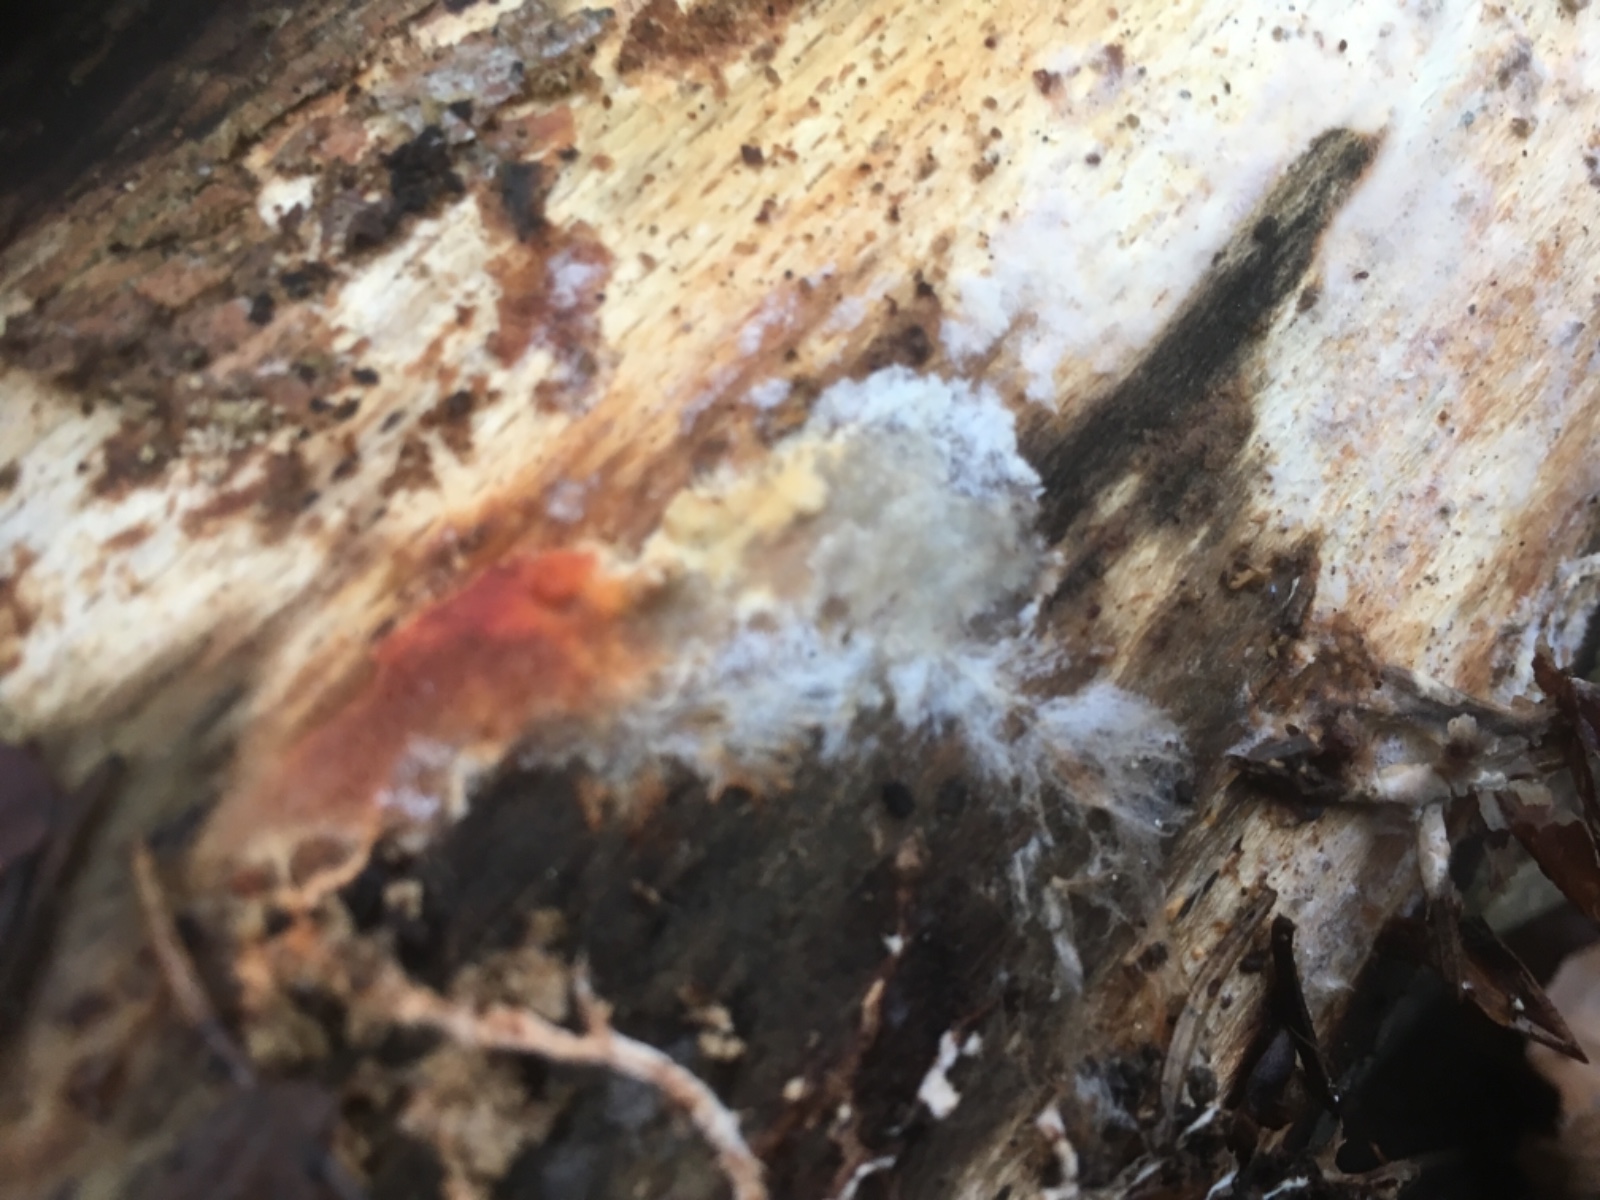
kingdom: Fungi
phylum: Basidiomycota
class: Agaricomycetes
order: Corticiales
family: Corticiaceae
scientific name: Corticiaceae
